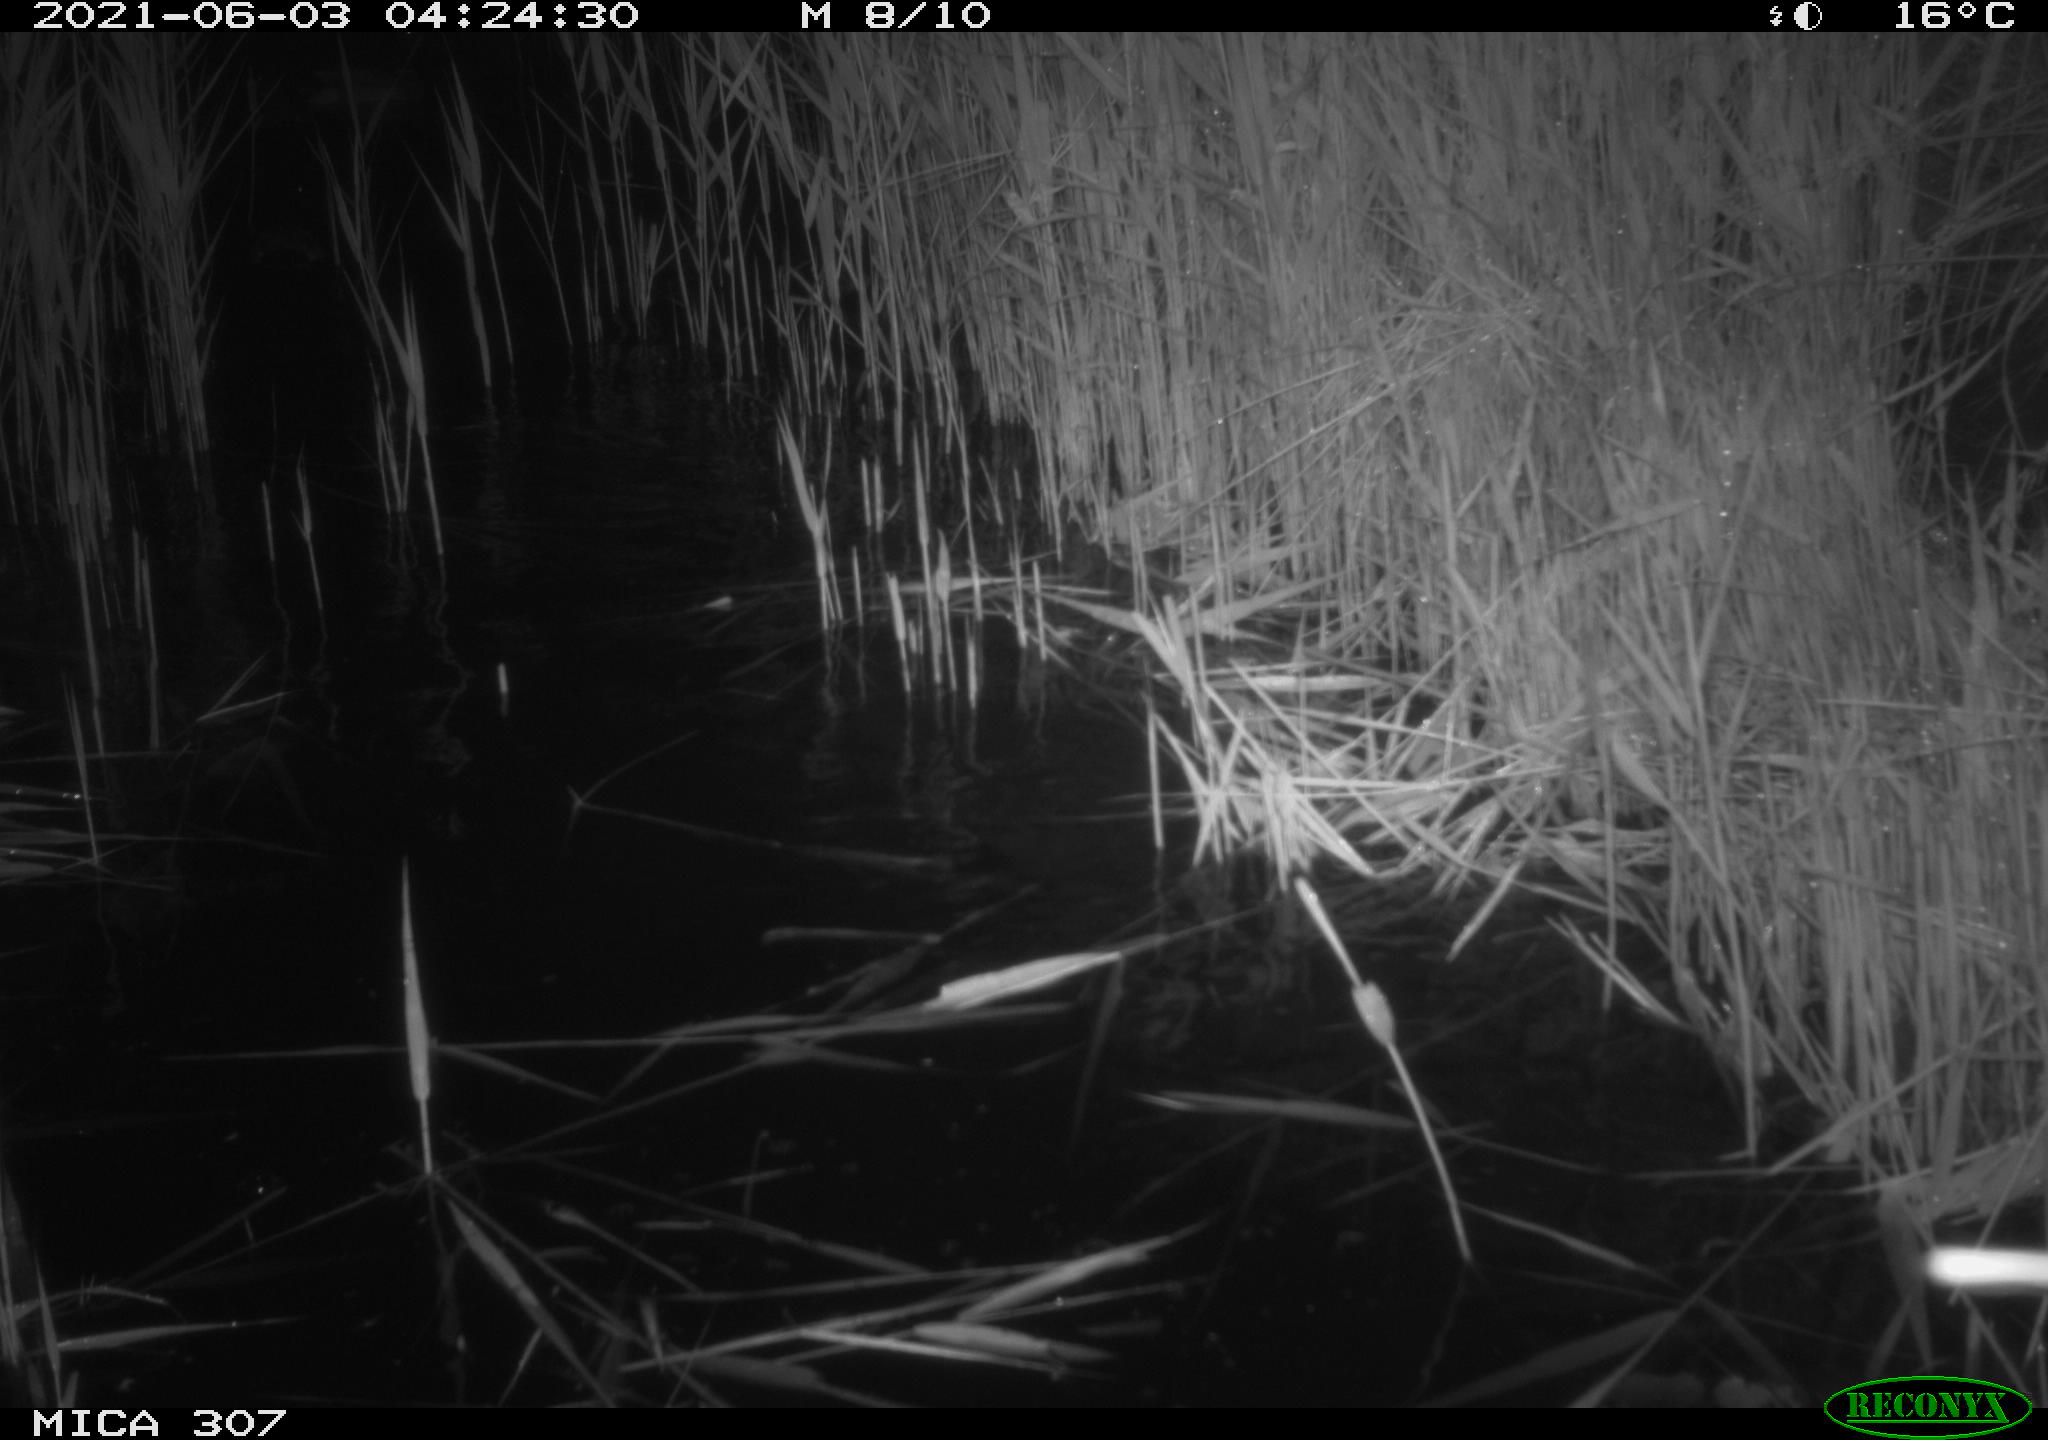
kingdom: Animalia
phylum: Chordata
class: Aves
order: Anseriformes
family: Anatidae
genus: Anas
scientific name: Anas platyrhynchos
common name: Mallard
